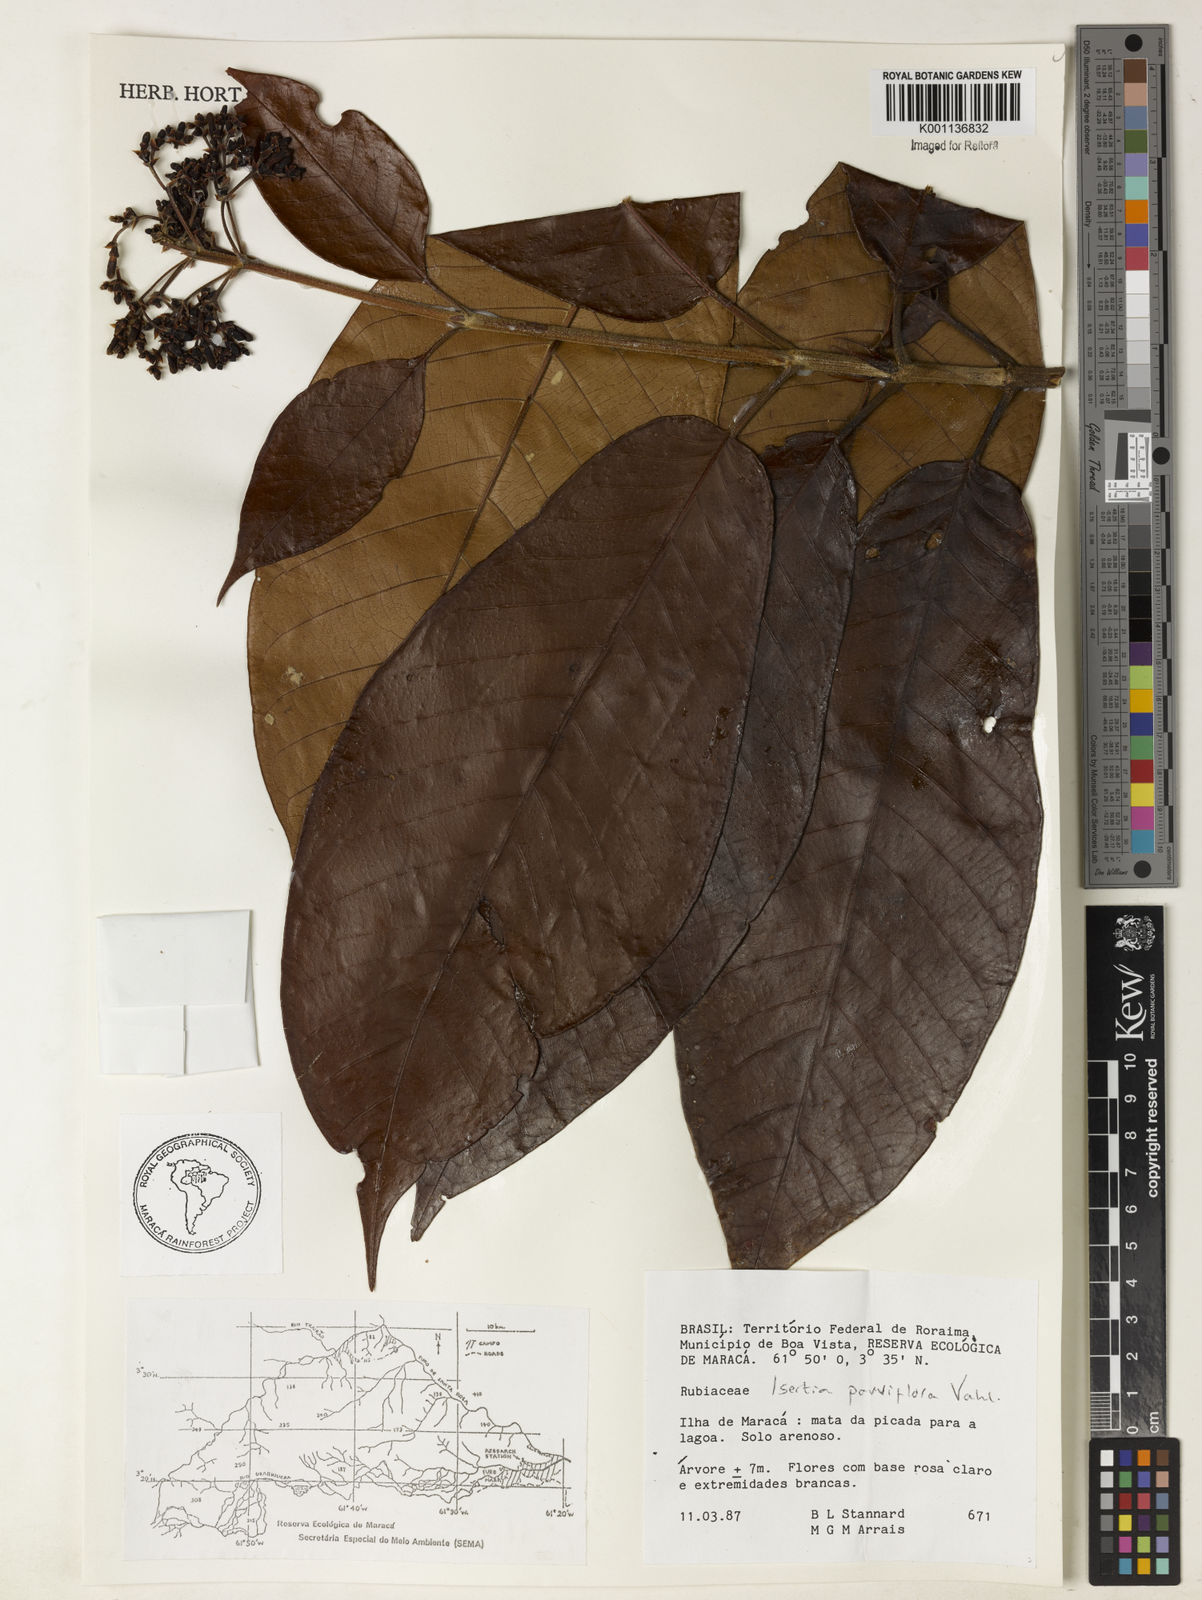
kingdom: Plantae
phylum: Tracheophyta
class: Magnoliopsida
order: Gentianales
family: Rubiaceae
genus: Isertia
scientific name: Isertia parviflora
